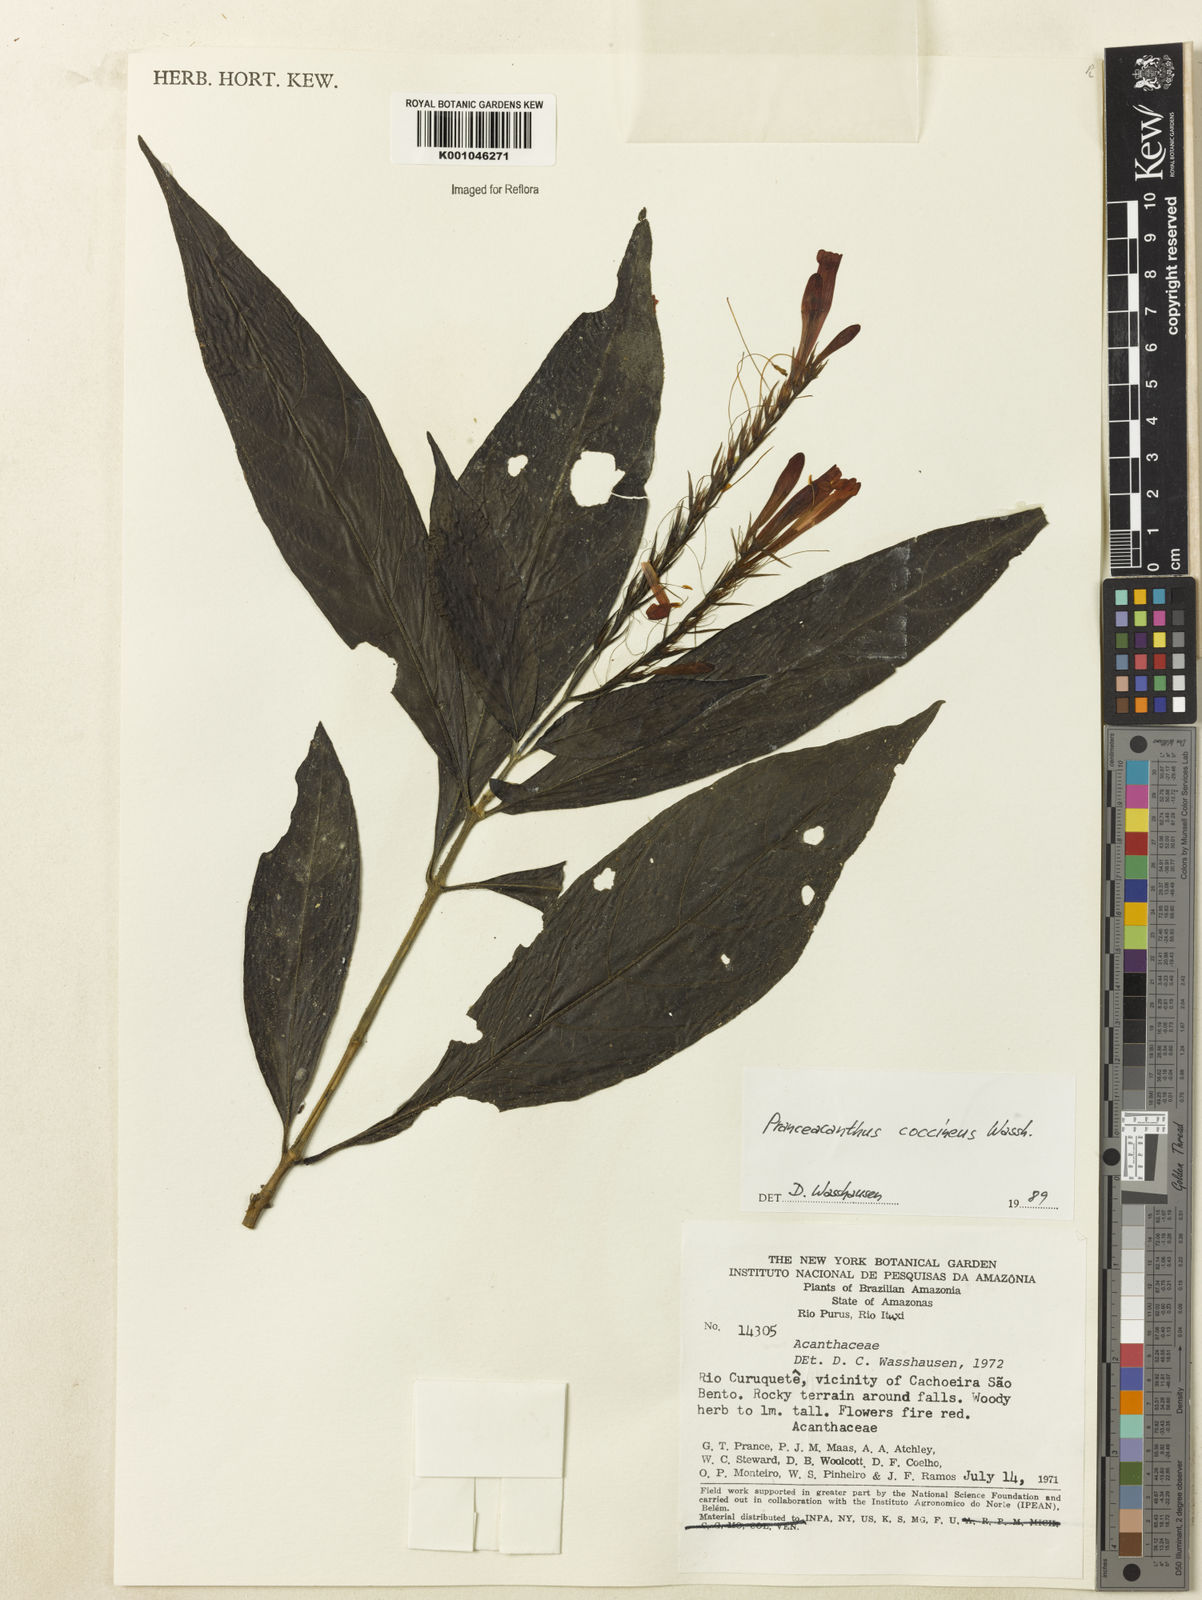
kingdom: Plantae
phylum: Tracheophyta
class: Magnoliopsida
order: Lamiales
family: Acanthaceae
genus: Pranceacanthus
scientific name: Pranceacanthus coccineus
